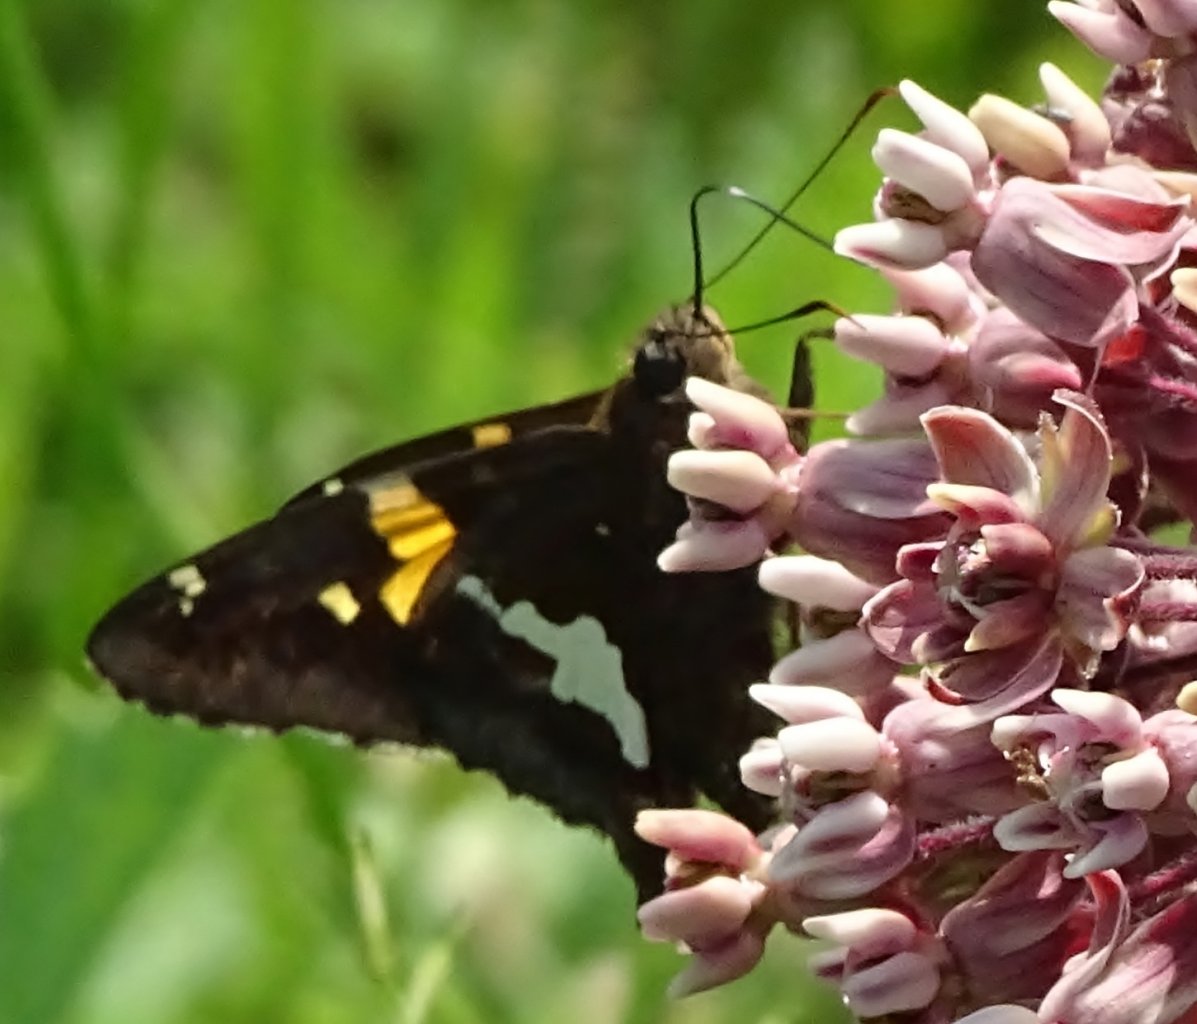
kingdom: Animalia
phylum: Arthropoda
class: Insecta
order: Lepidoptera
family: Hesperiidae
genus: Epargyreus
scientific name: Epargyreus clarus
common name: Silver-spotted Skipper
